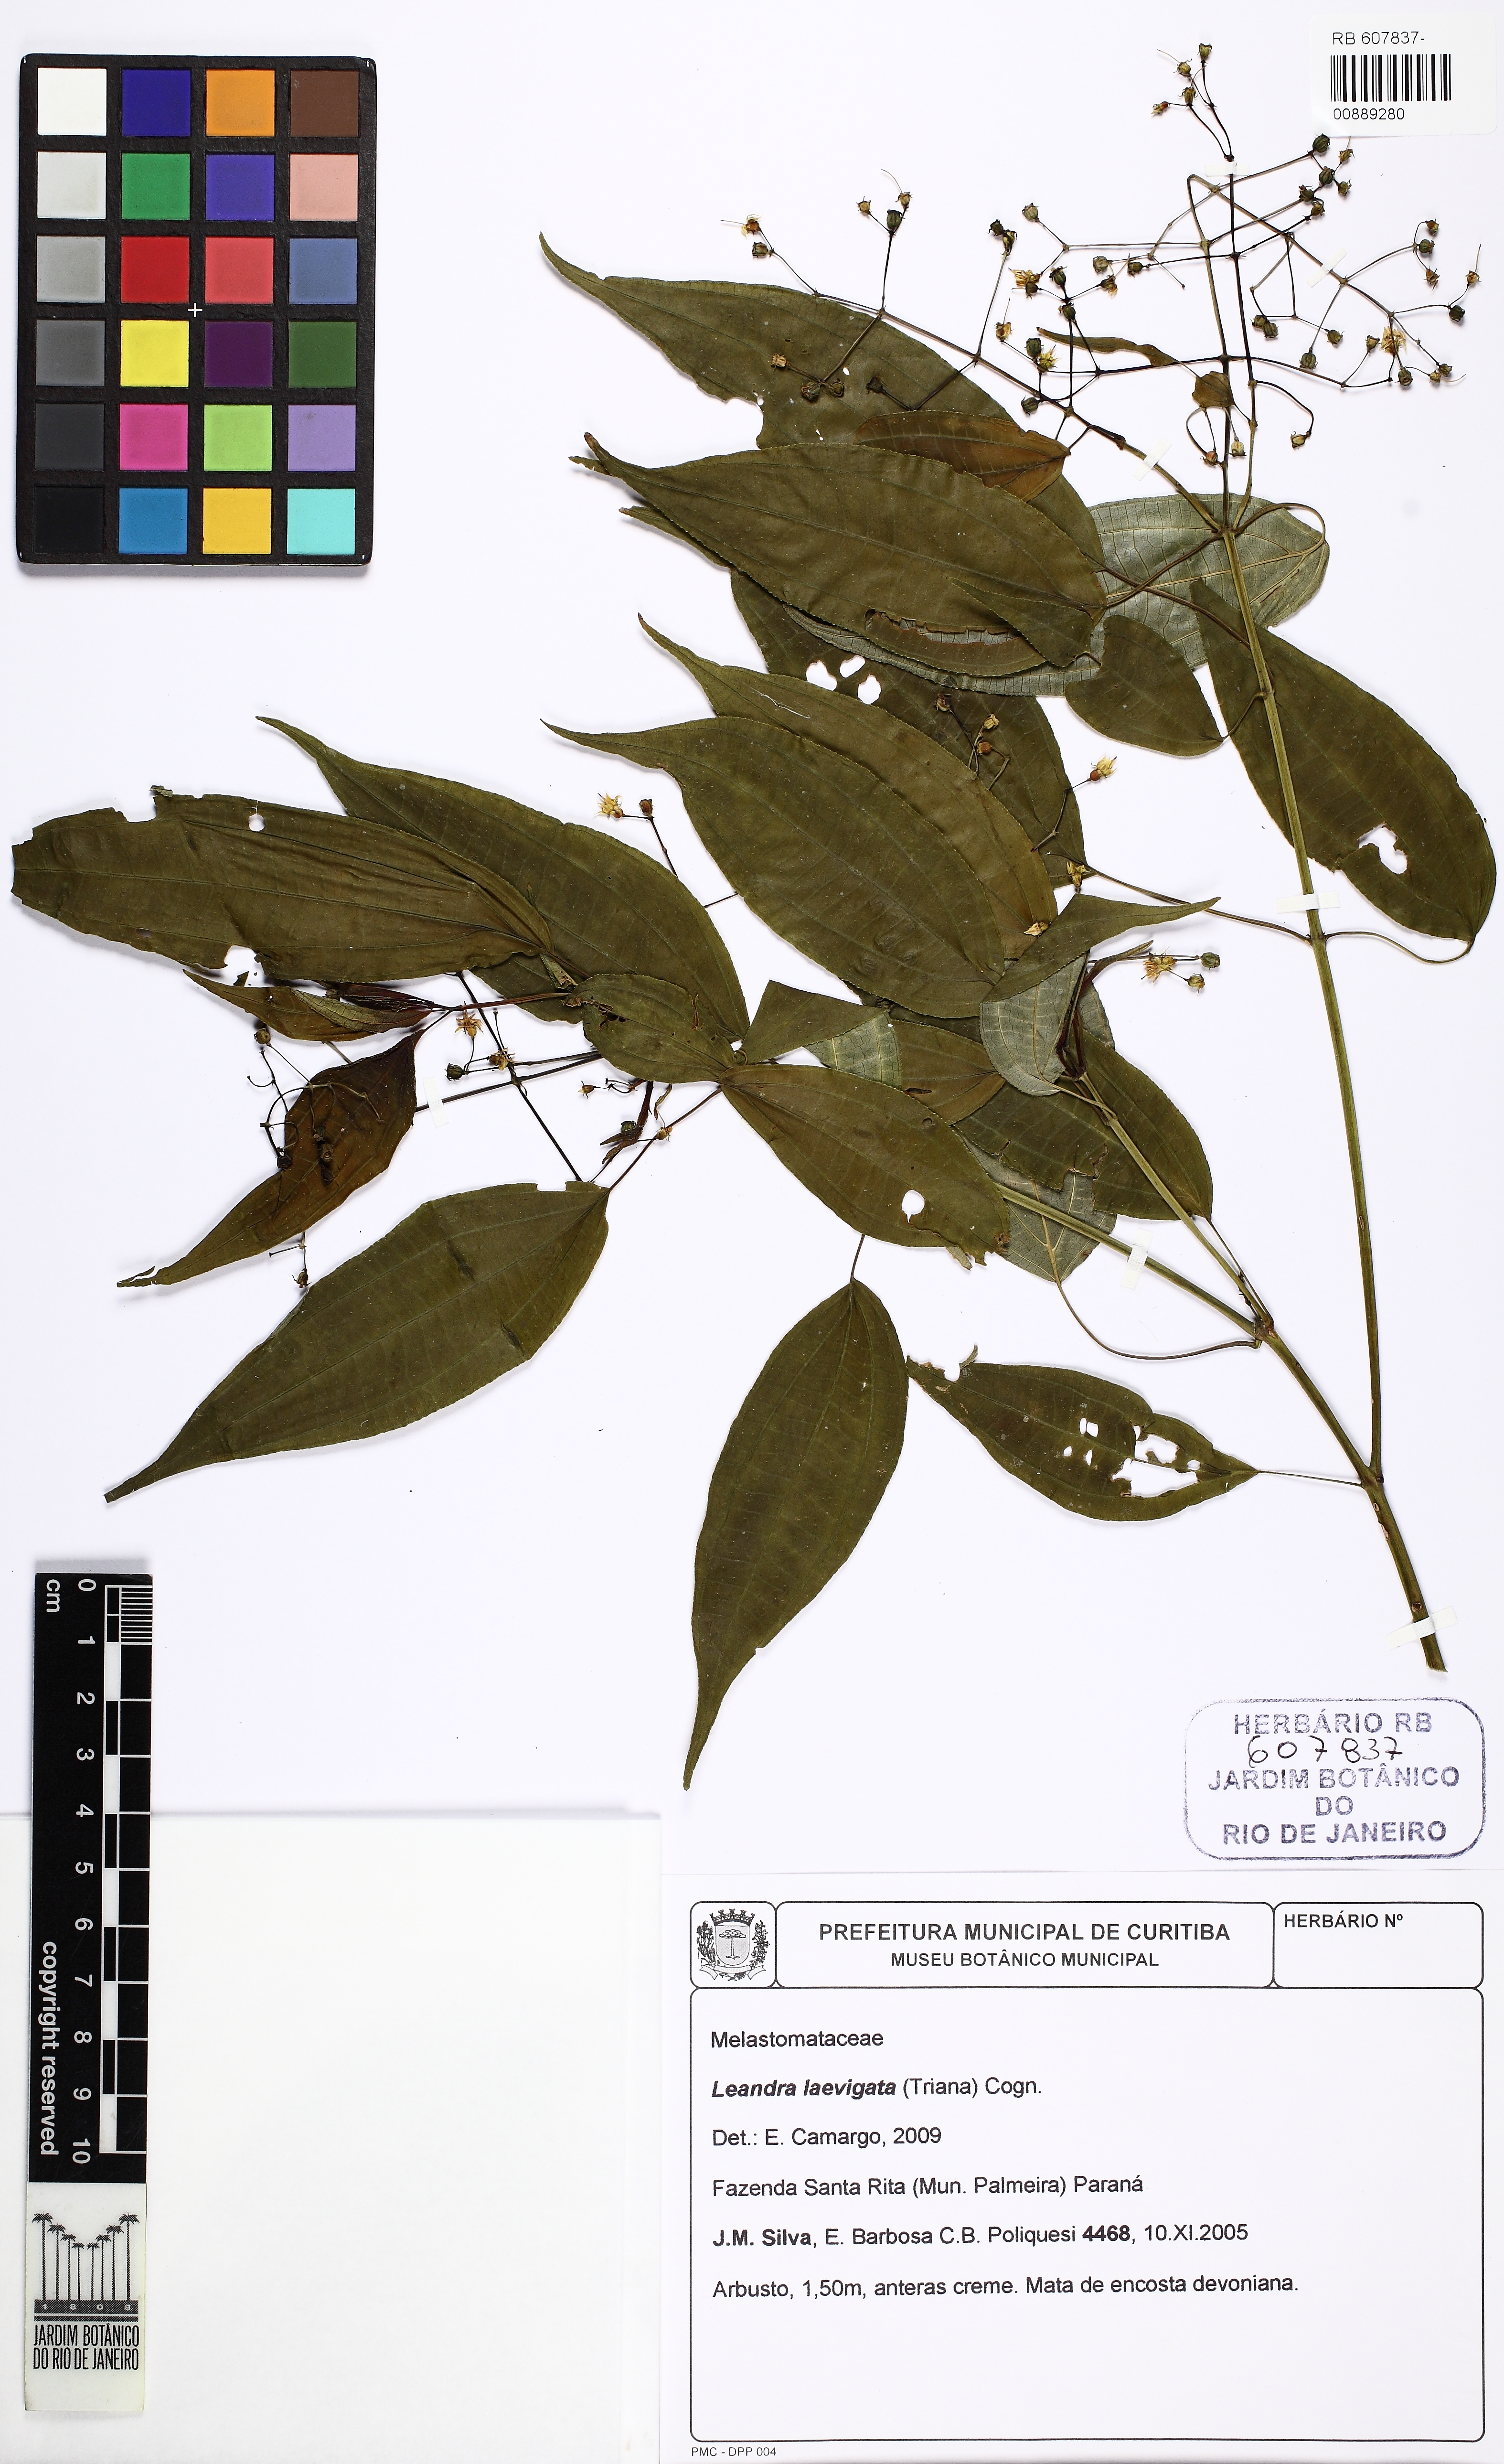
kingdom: Plantae
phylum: Tracheophyta
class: Magnoliopsida
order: Myrtales
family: Melastomataceae
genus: Miconia
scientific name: Miconia ciliolata
